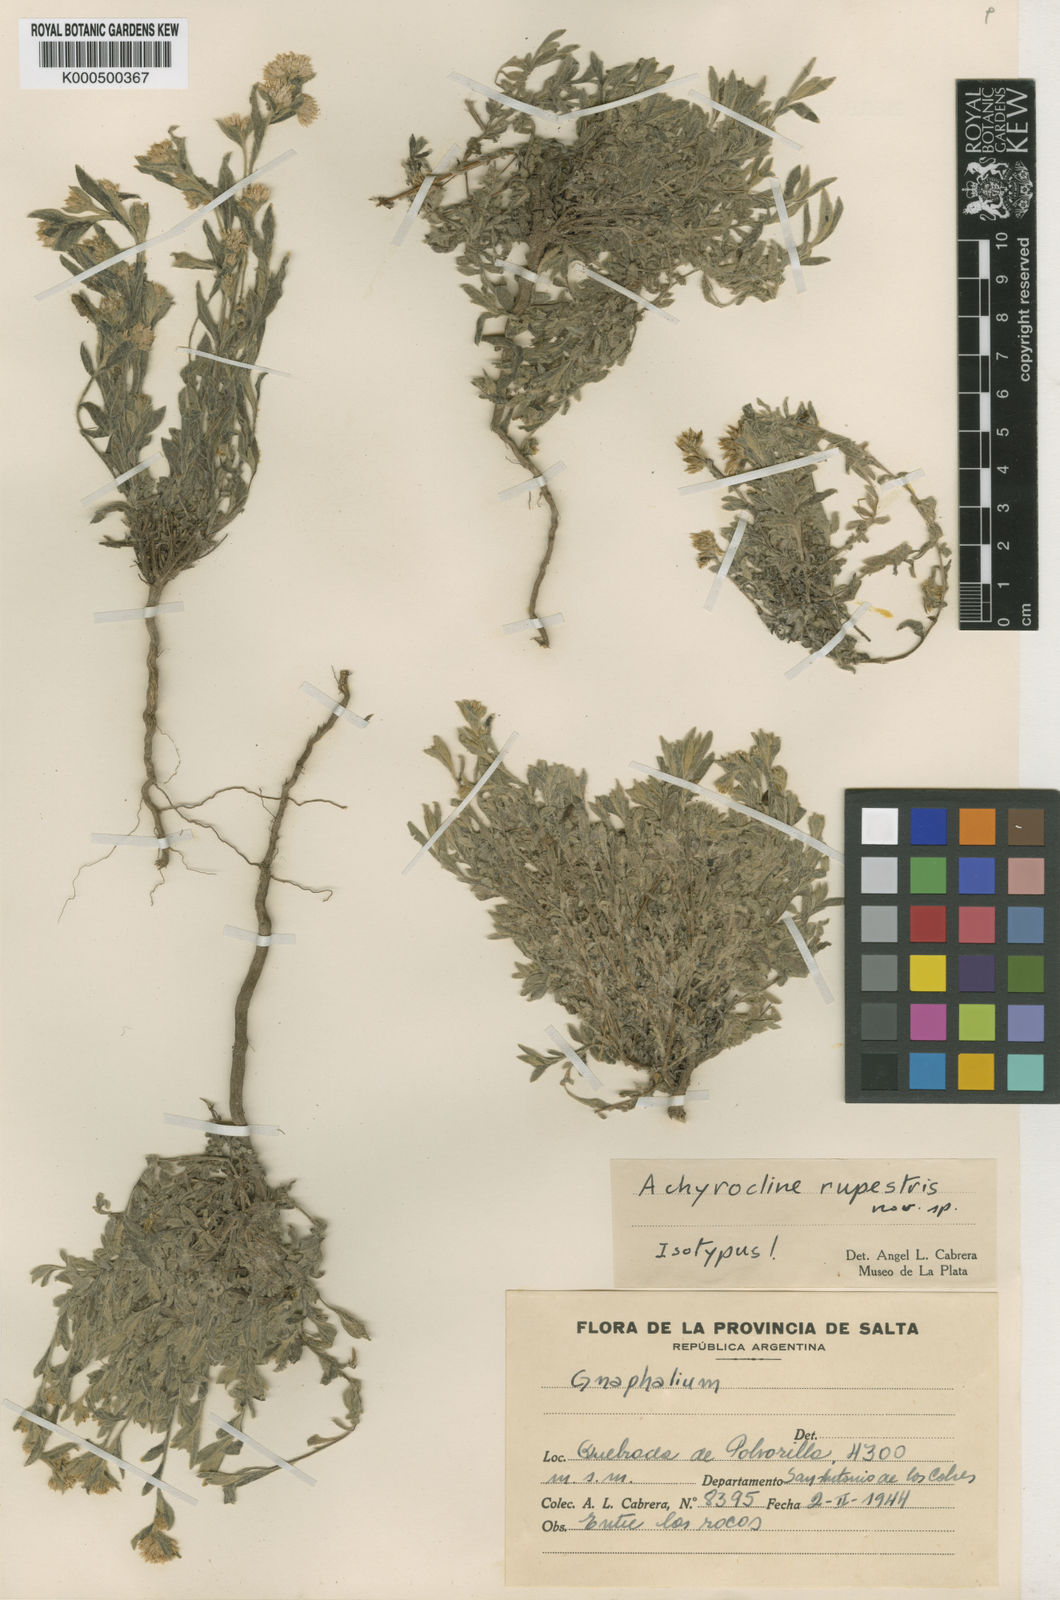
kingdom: Plantae
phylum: Tracheophyta
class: Magnoliopsida
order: Asterales
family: Asteraceae
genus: Achyrocline
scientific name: Achyrocline rupestris
